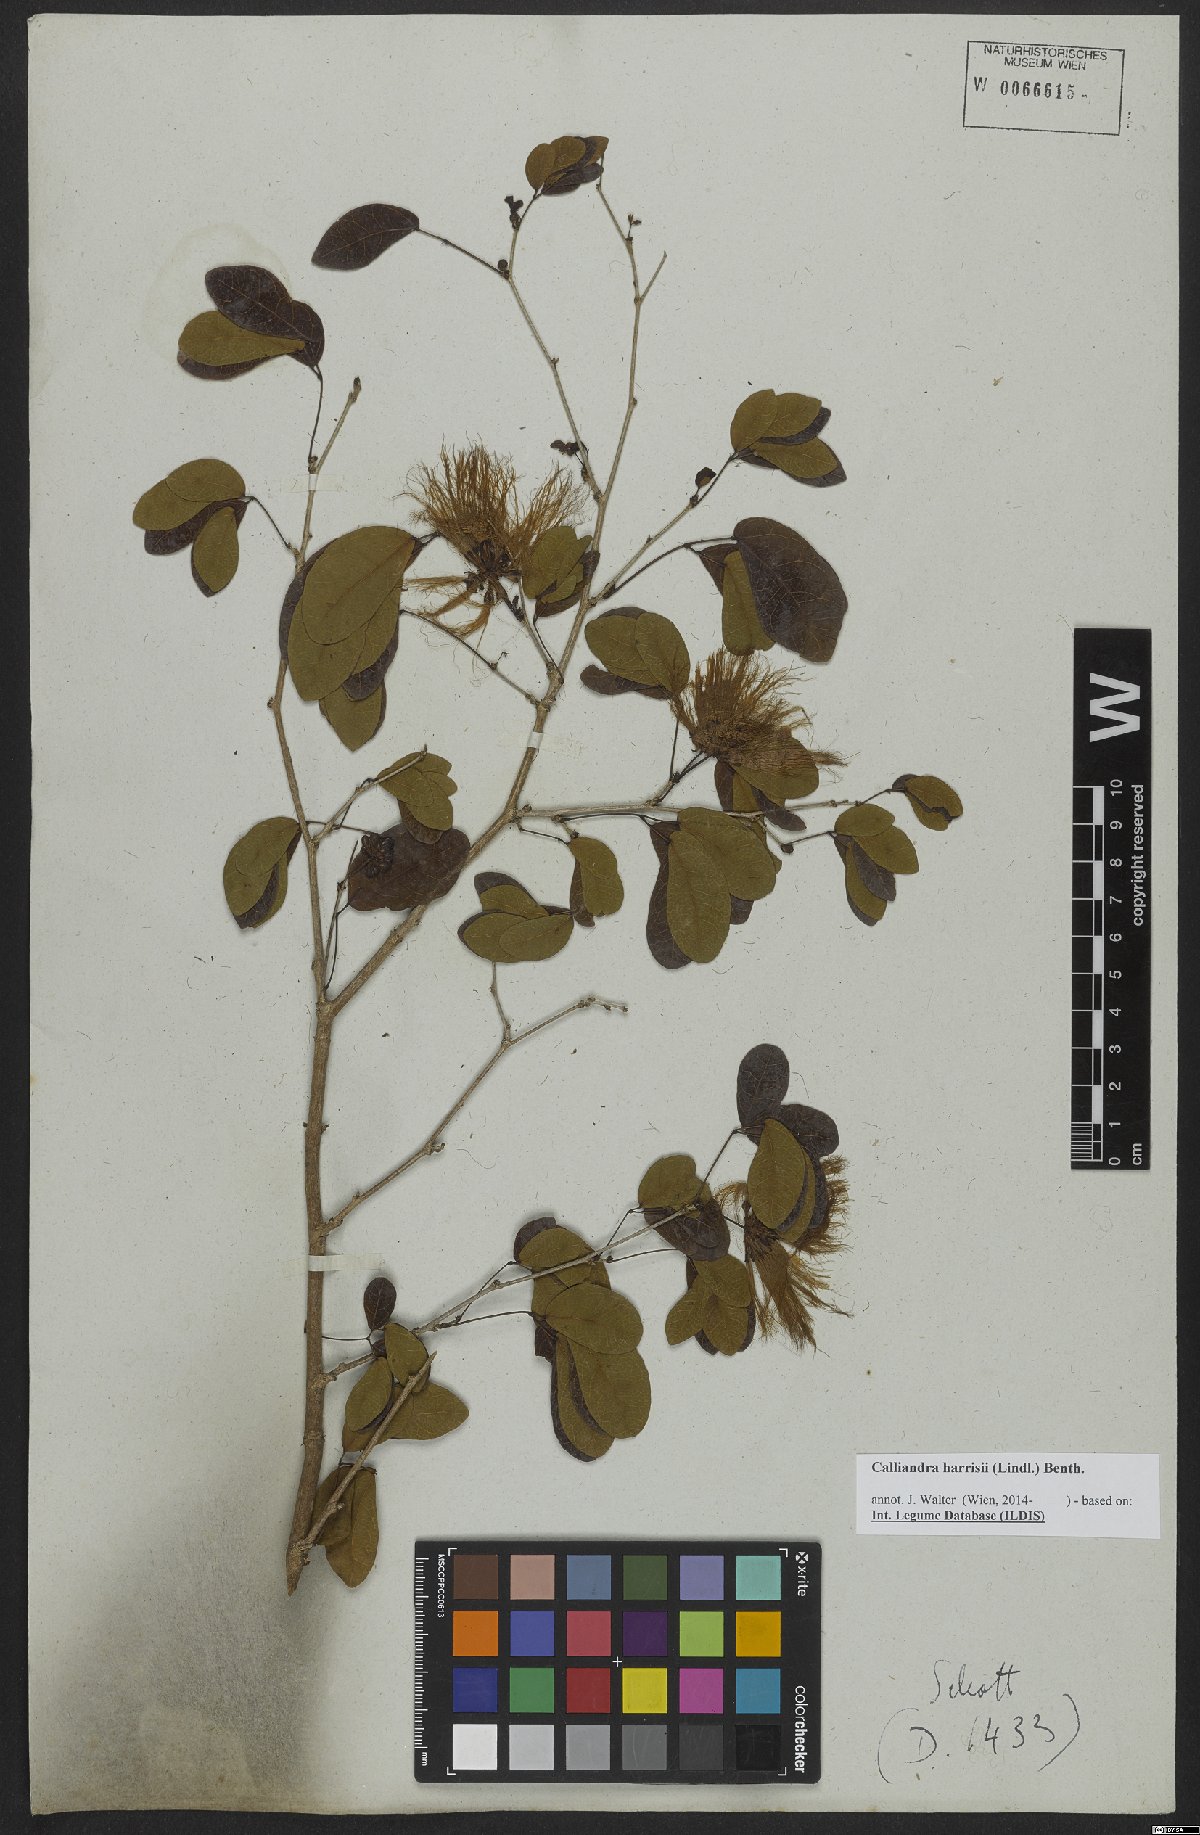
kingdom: Plantae
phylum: Tracheophyta
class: Magnoliopsida
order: Fabales
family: Fabaceae
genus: Calliandra
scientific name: Calliandra depauperata
